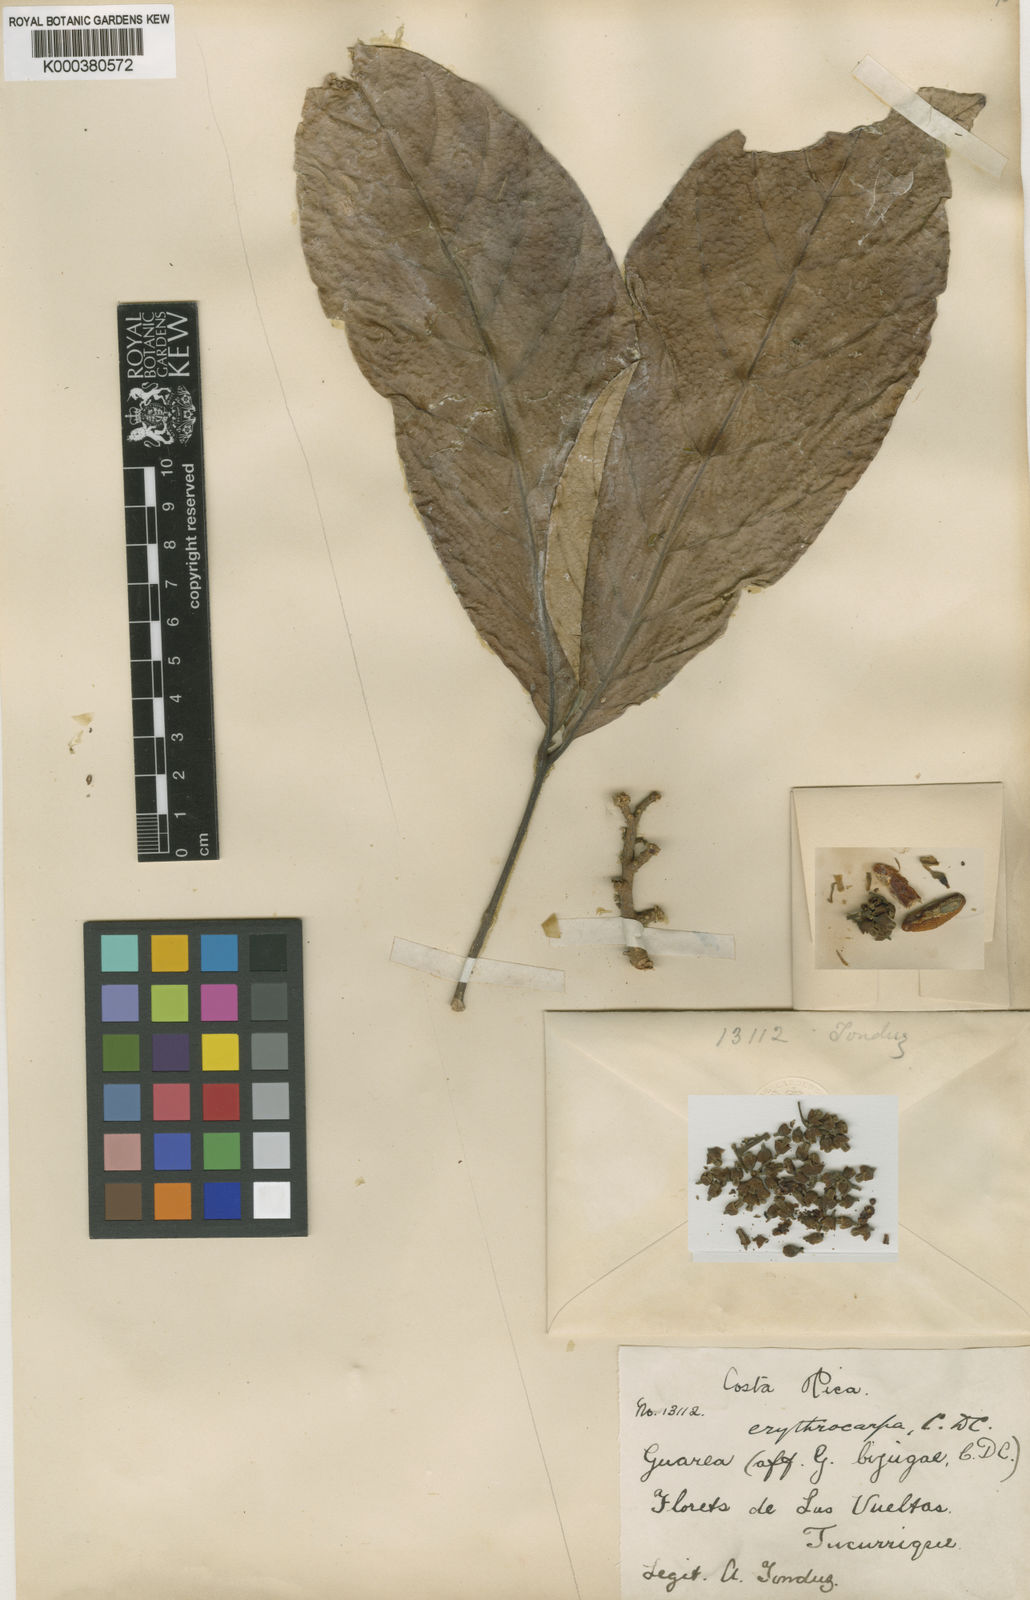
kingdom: Plantae
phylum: Tracheophyta
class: Magnoliopsida
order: Sapindales
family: Meliaceae
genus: Guarea
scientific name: Guarea glabra
